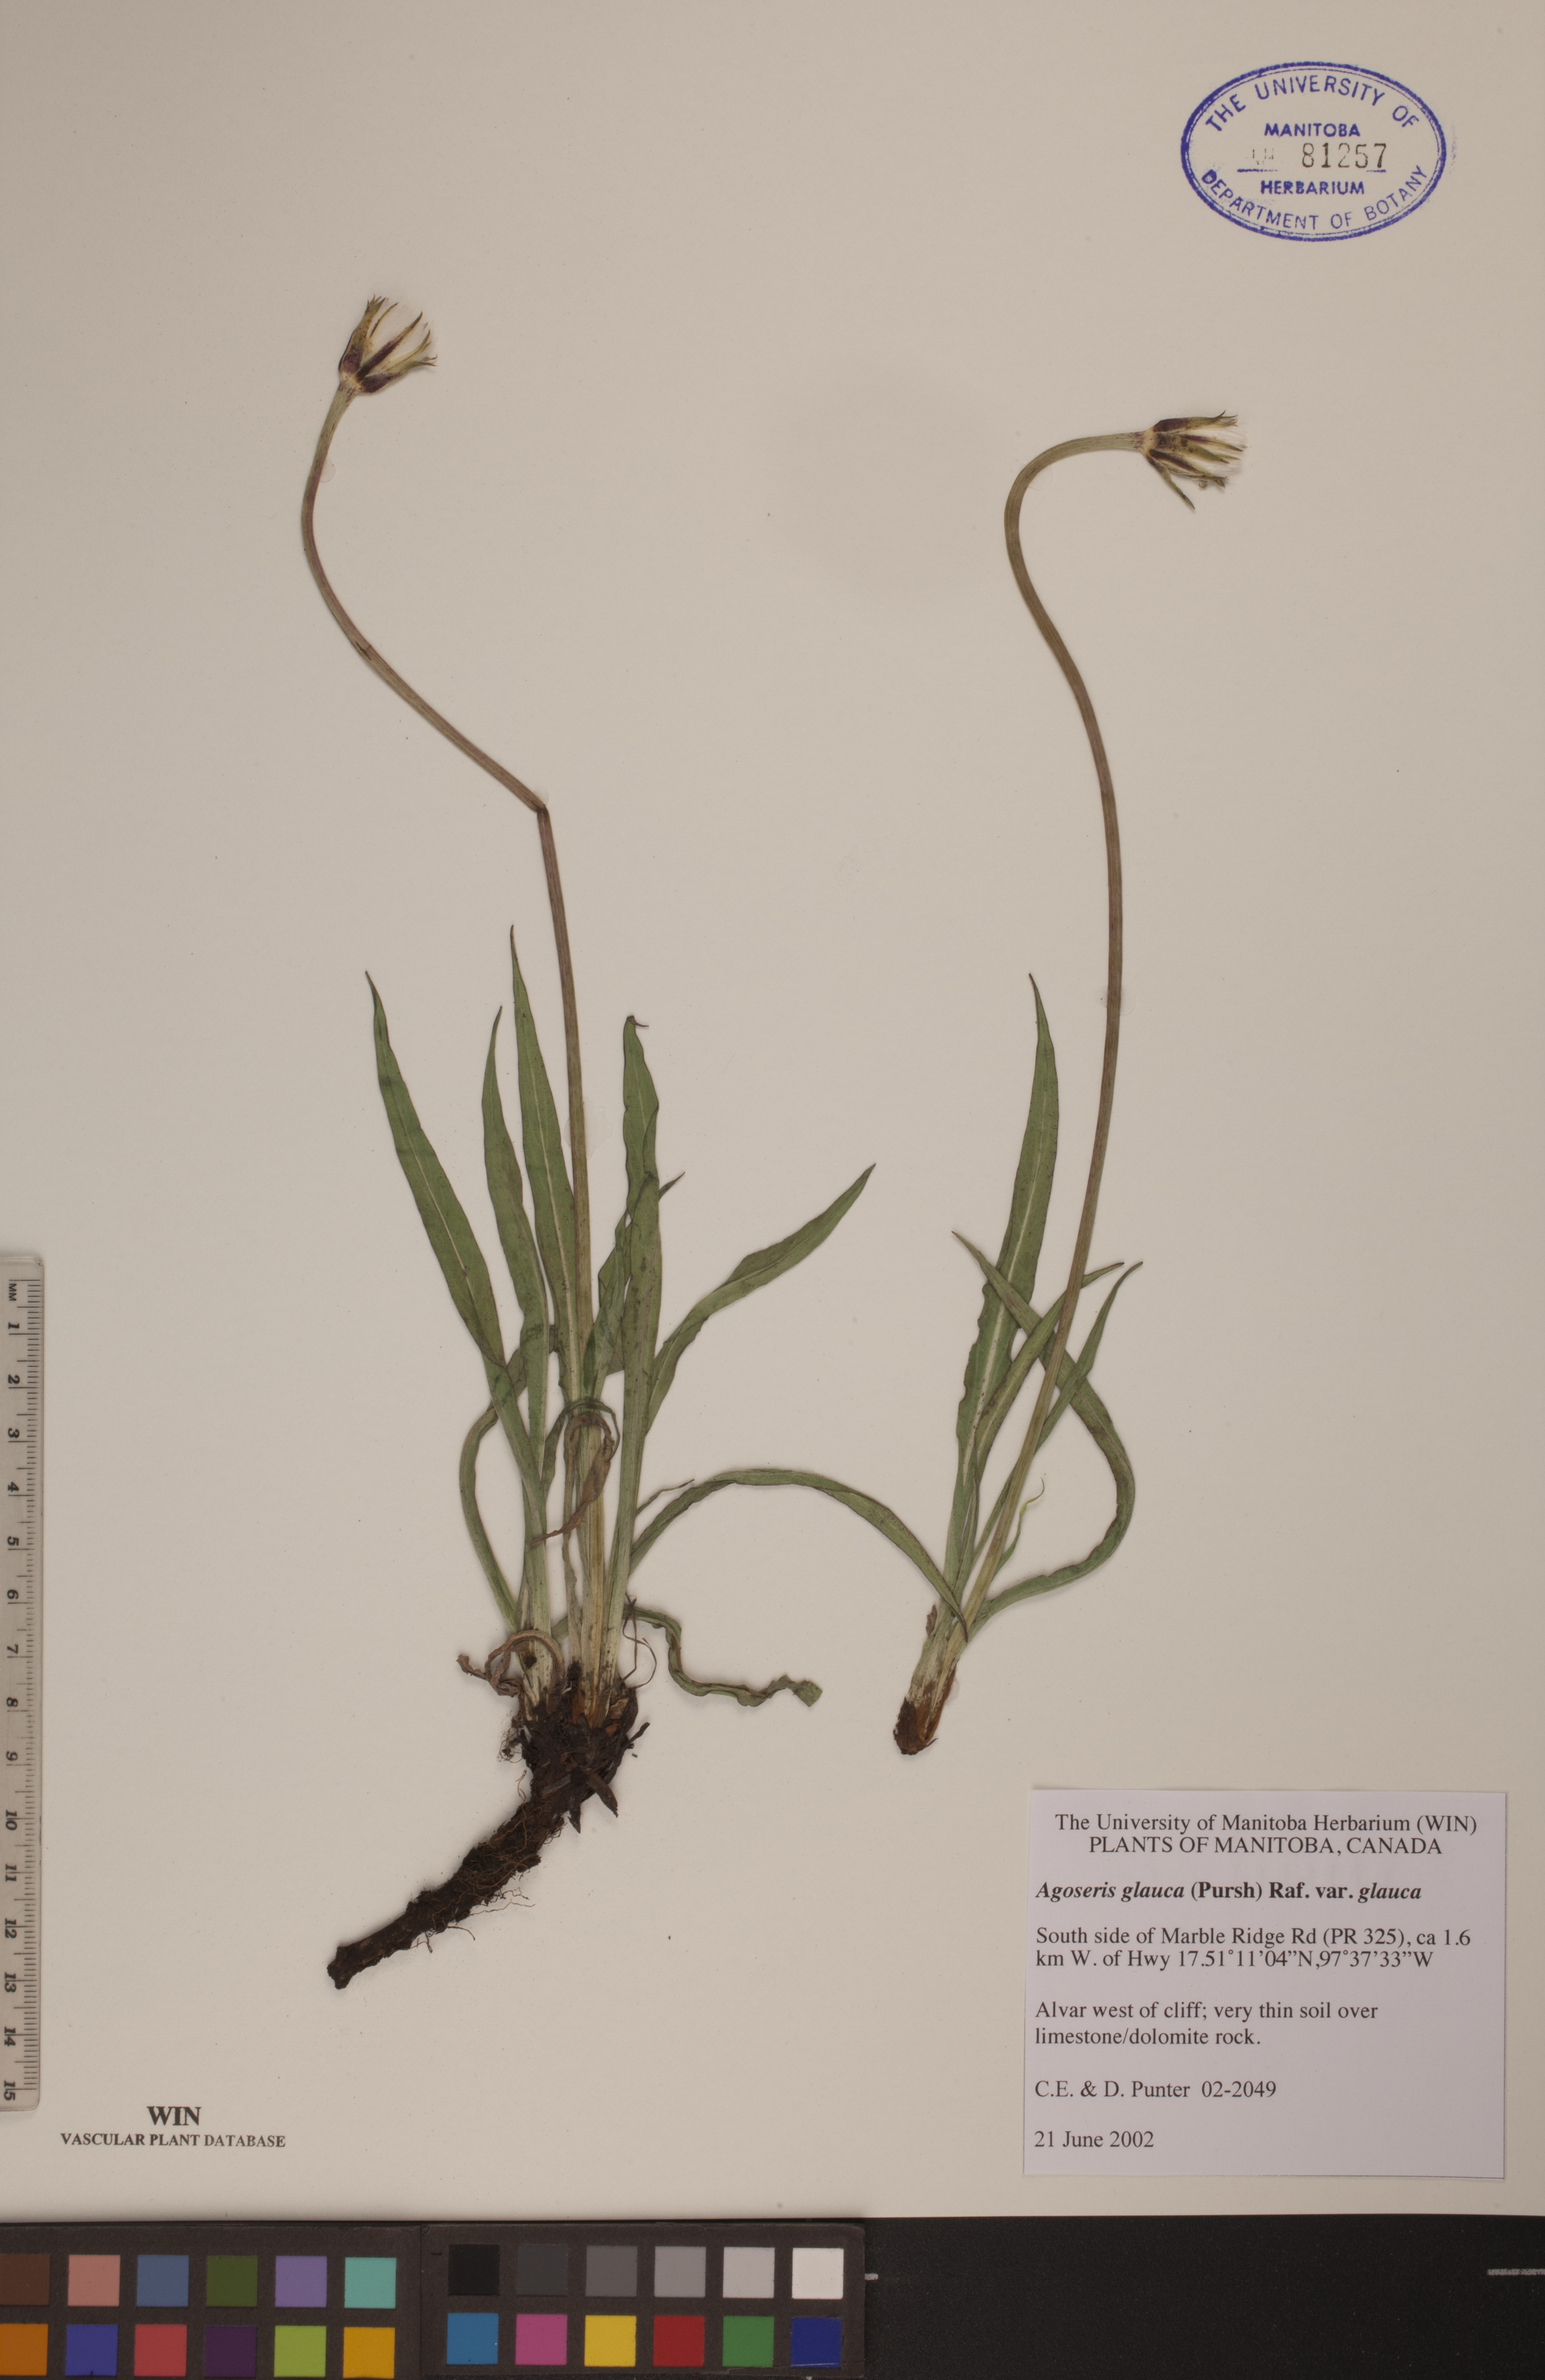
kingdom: Plantae
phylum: Tracheophyta
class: Magnoliopsida
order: Asterales
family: Asteraceae
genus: Agoseris
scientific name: Agoseris glauca
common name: Prairie agoseris
